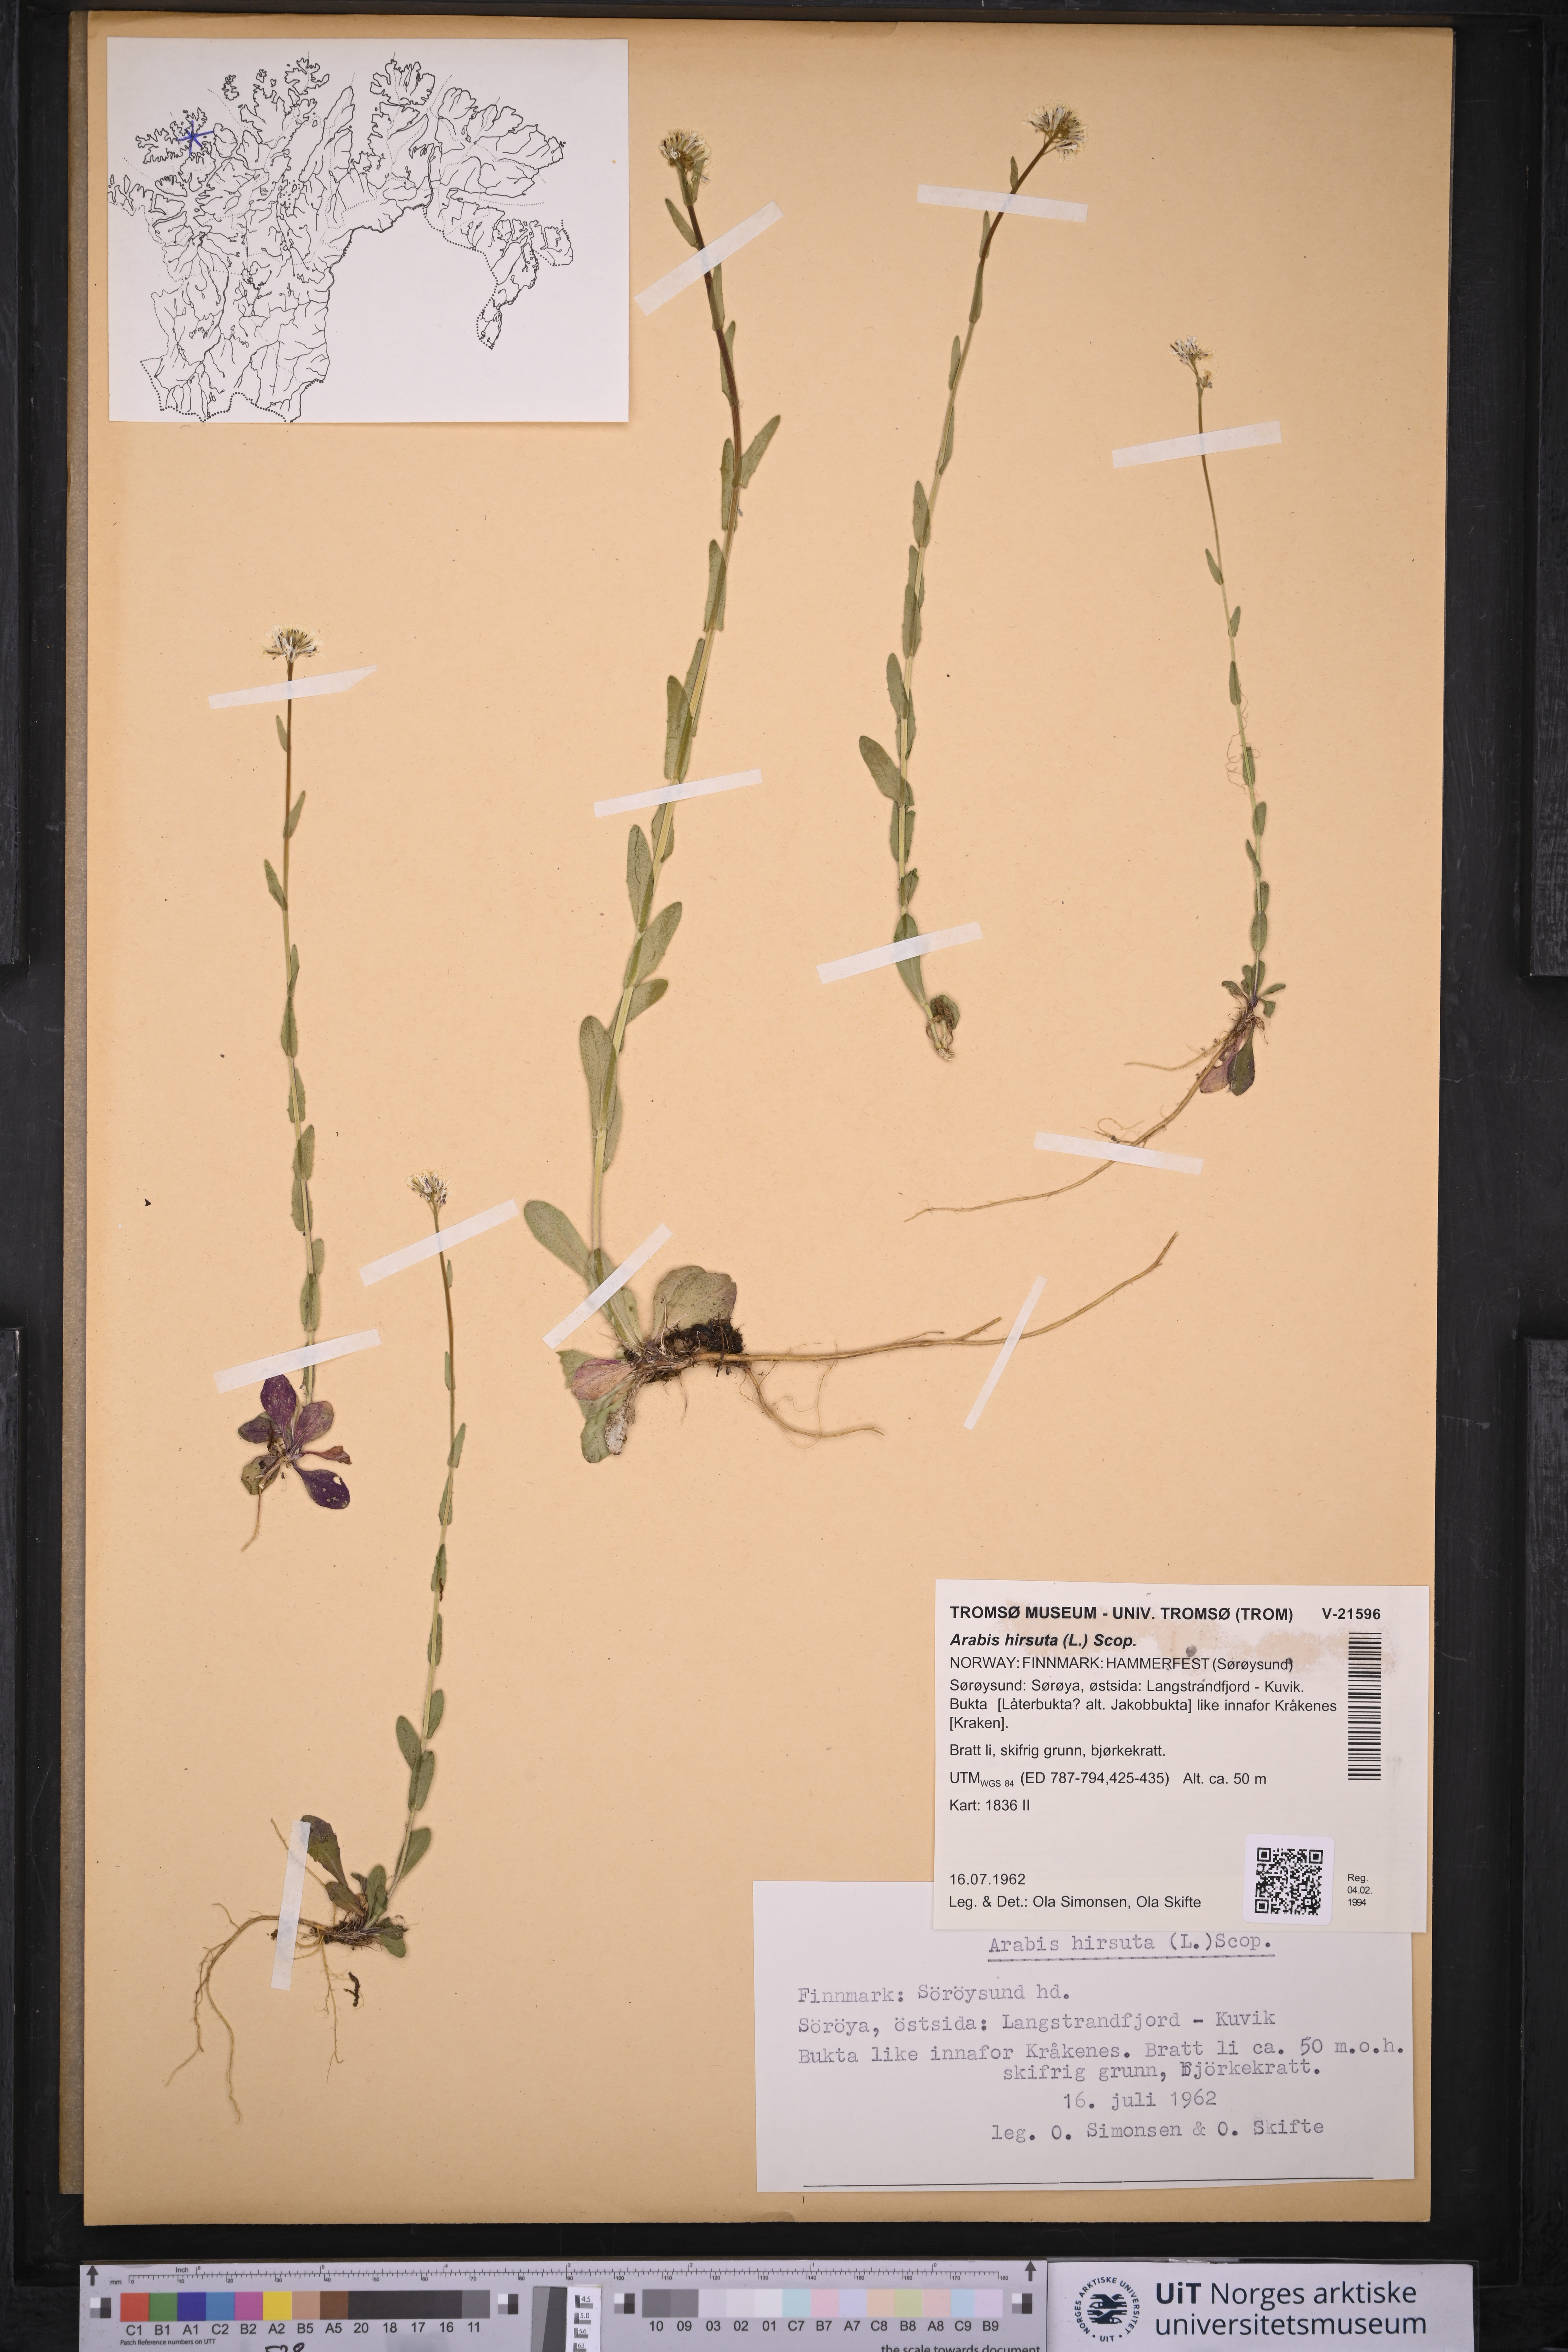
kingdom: Plantae
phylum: Tracheophyta
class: Magnoliopsida
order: Brassicales
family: Brassicaceae
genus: Arabis
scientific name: Arabis hirsuta
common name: Hairy rock-cress
